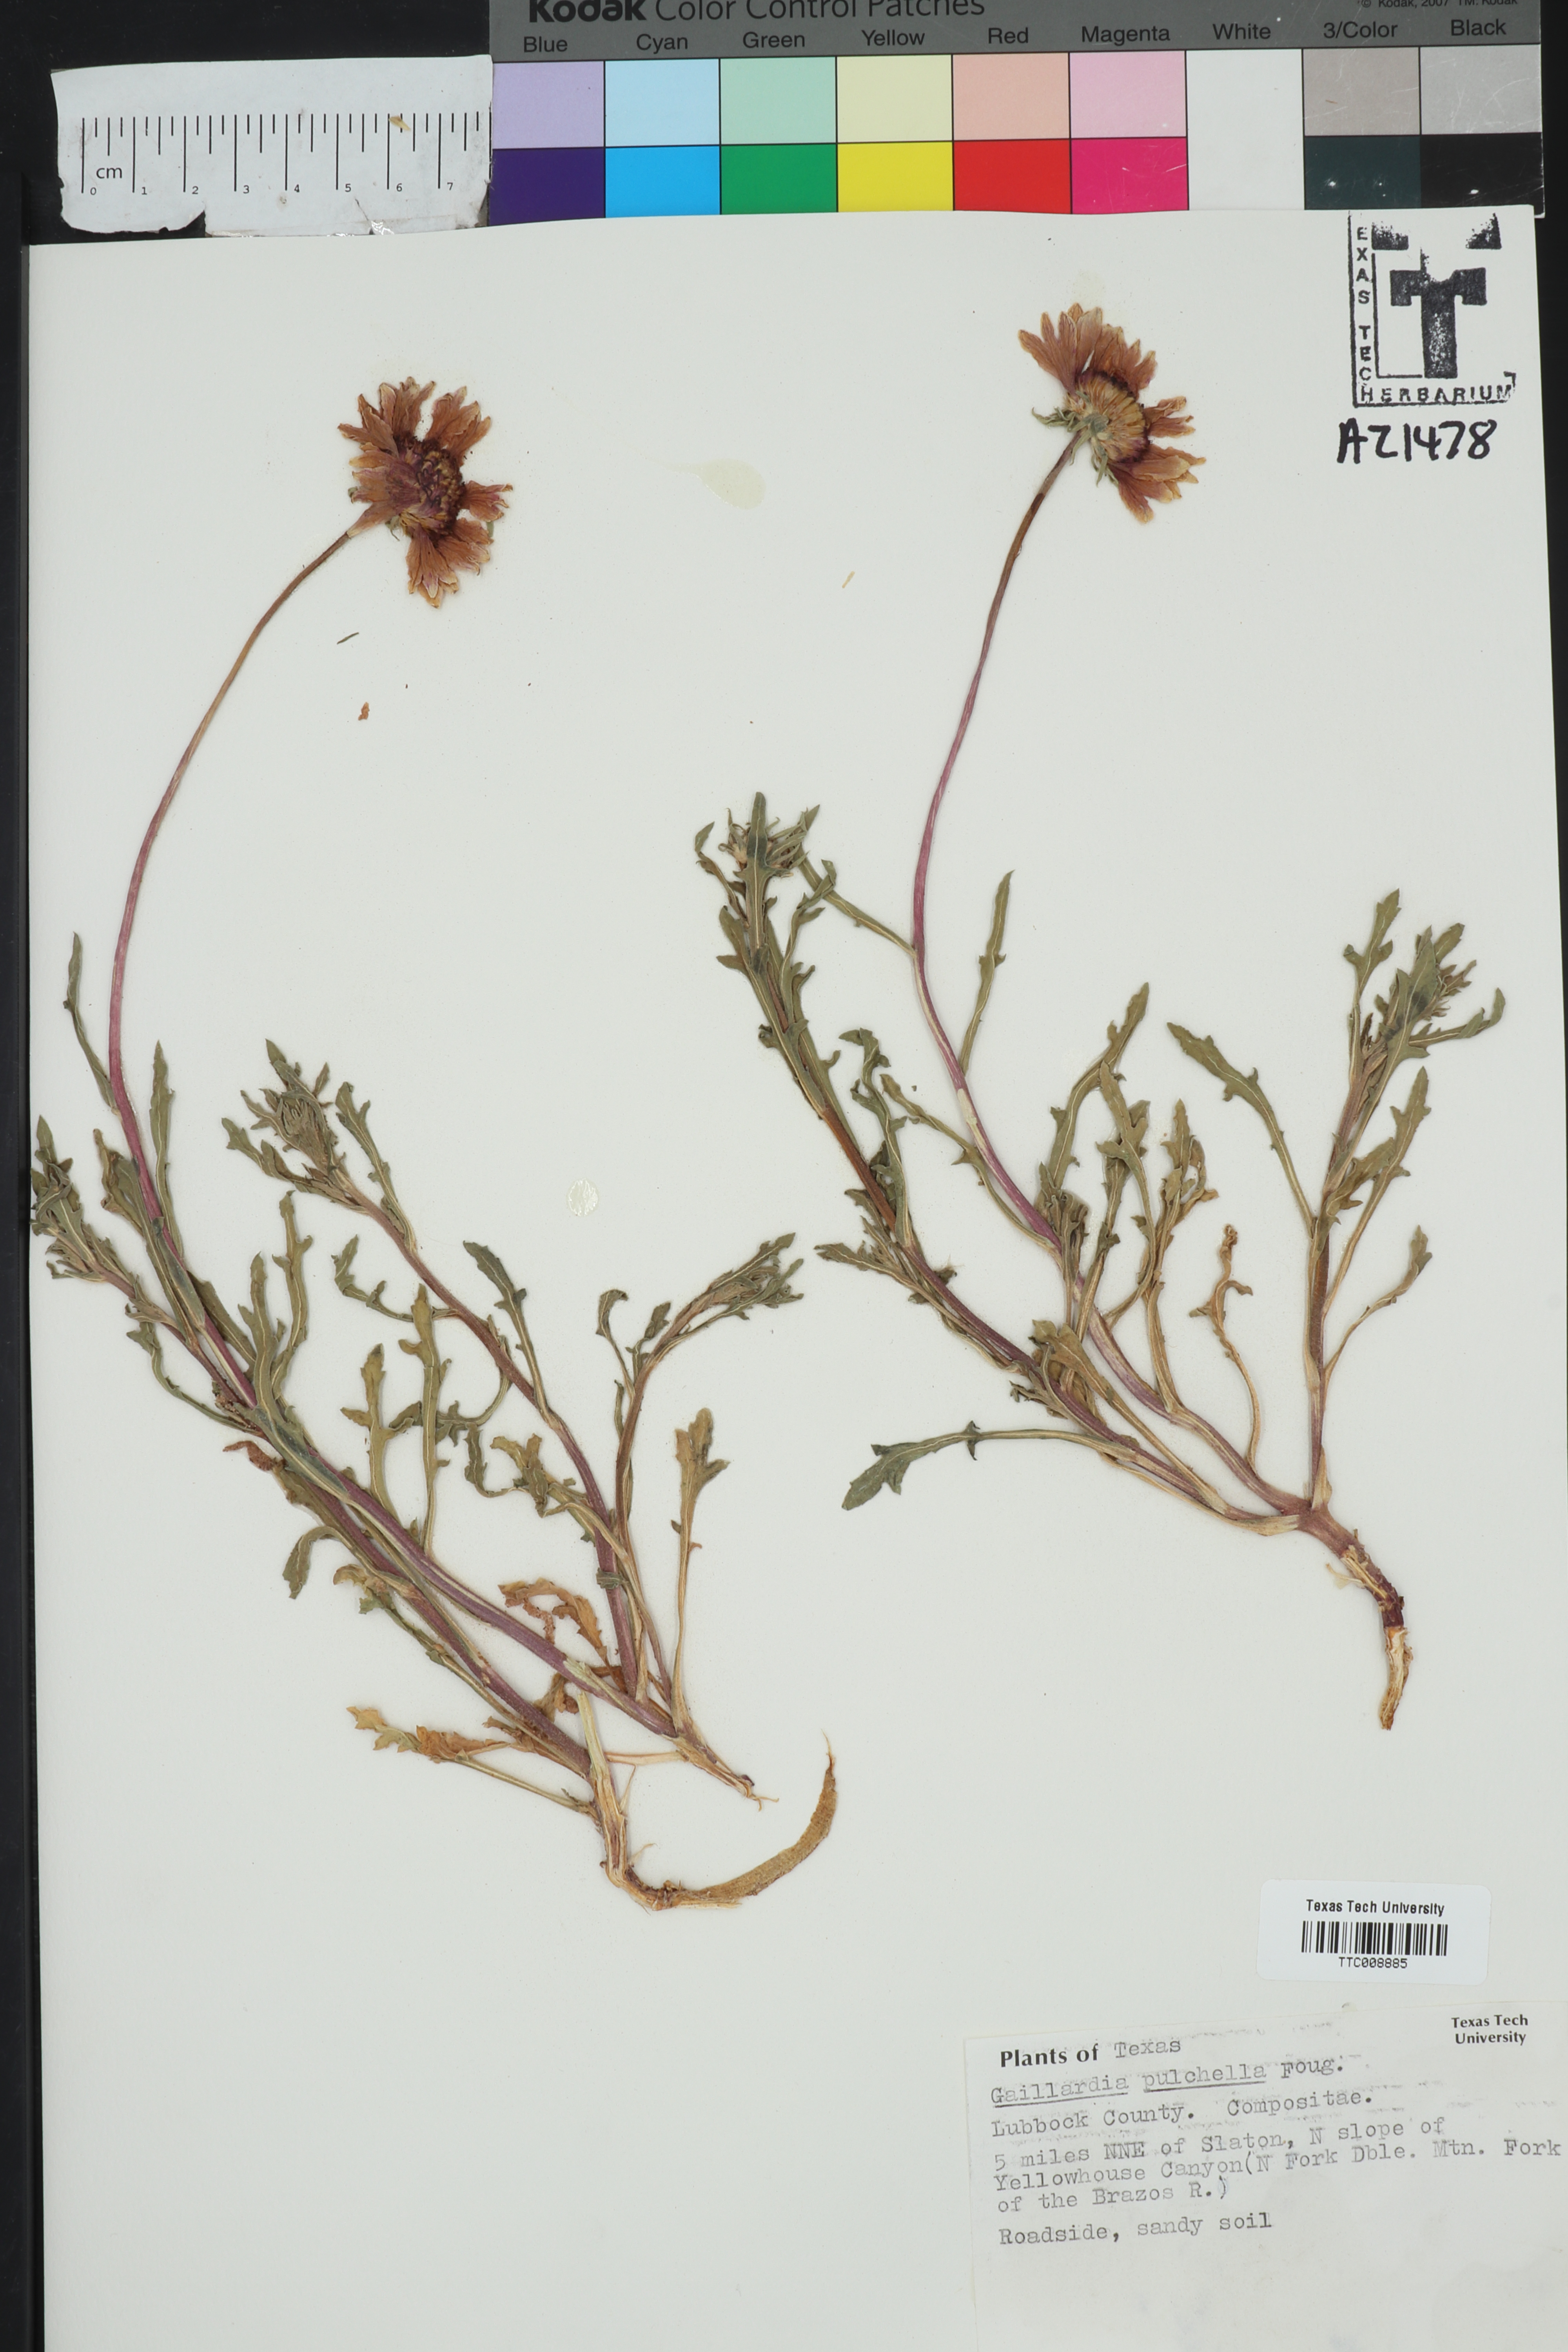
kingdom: Plantae
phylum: Tracheophyta
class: Magnoliopsida
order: Asterales
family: Asteraceae
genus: Gaillardia
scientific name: Gaillardia pulchella
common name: Firewheel
